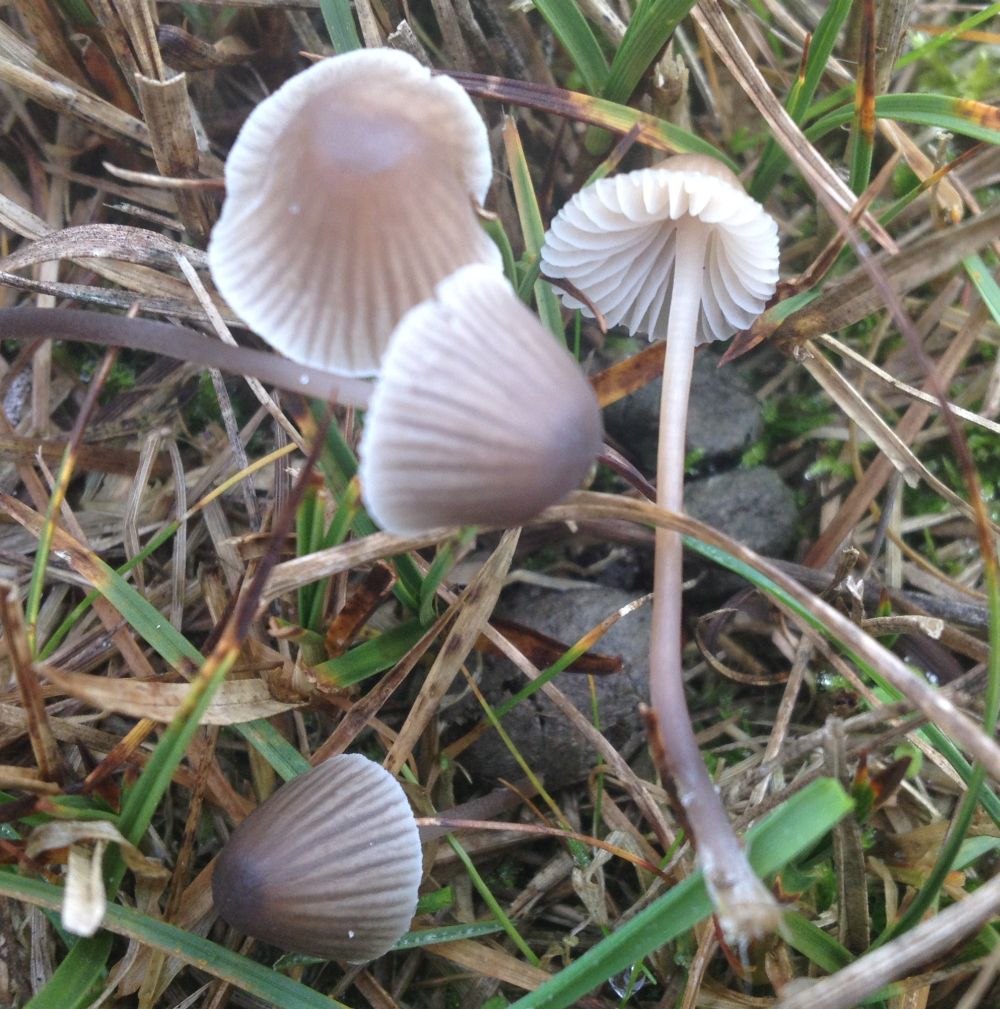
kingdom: Fungi
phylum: Basidiomycota
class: Agaricomycetes
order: Agaricales
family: Mycenaceae
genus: Mycena
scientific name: Mycena leptocephala
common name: klor-huesvamp
